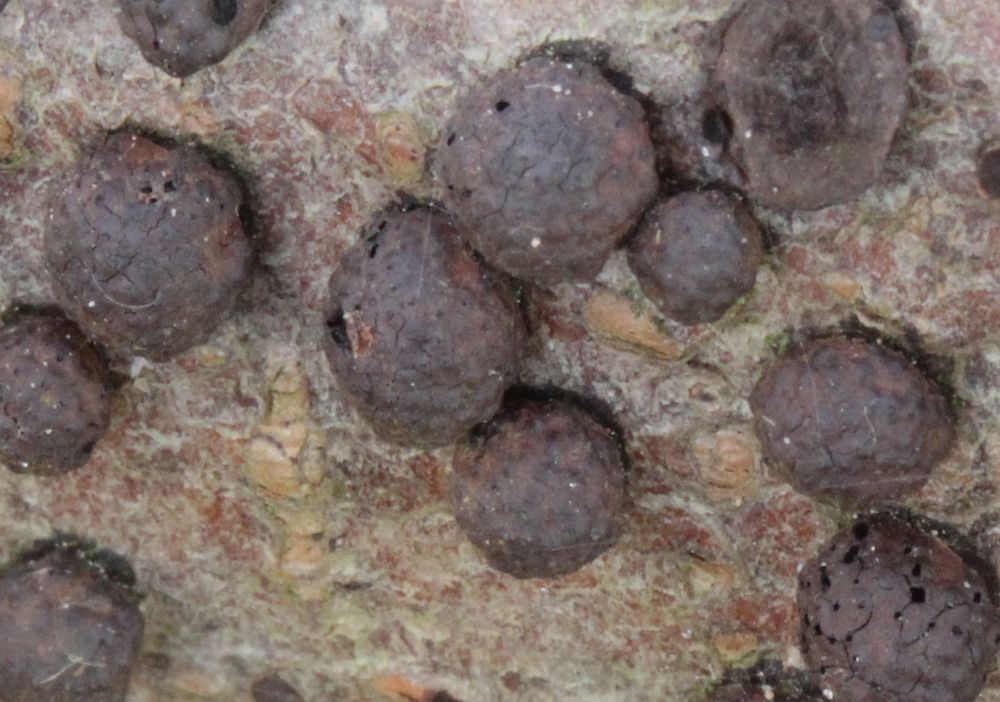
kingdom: Fungi
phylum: Ascomycota
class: Sordariomycetes
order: Xylariales
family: Hypoxylaceae
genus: Hypoxylon
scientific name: Hypoxylon fragiforme
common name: kuljordbær
